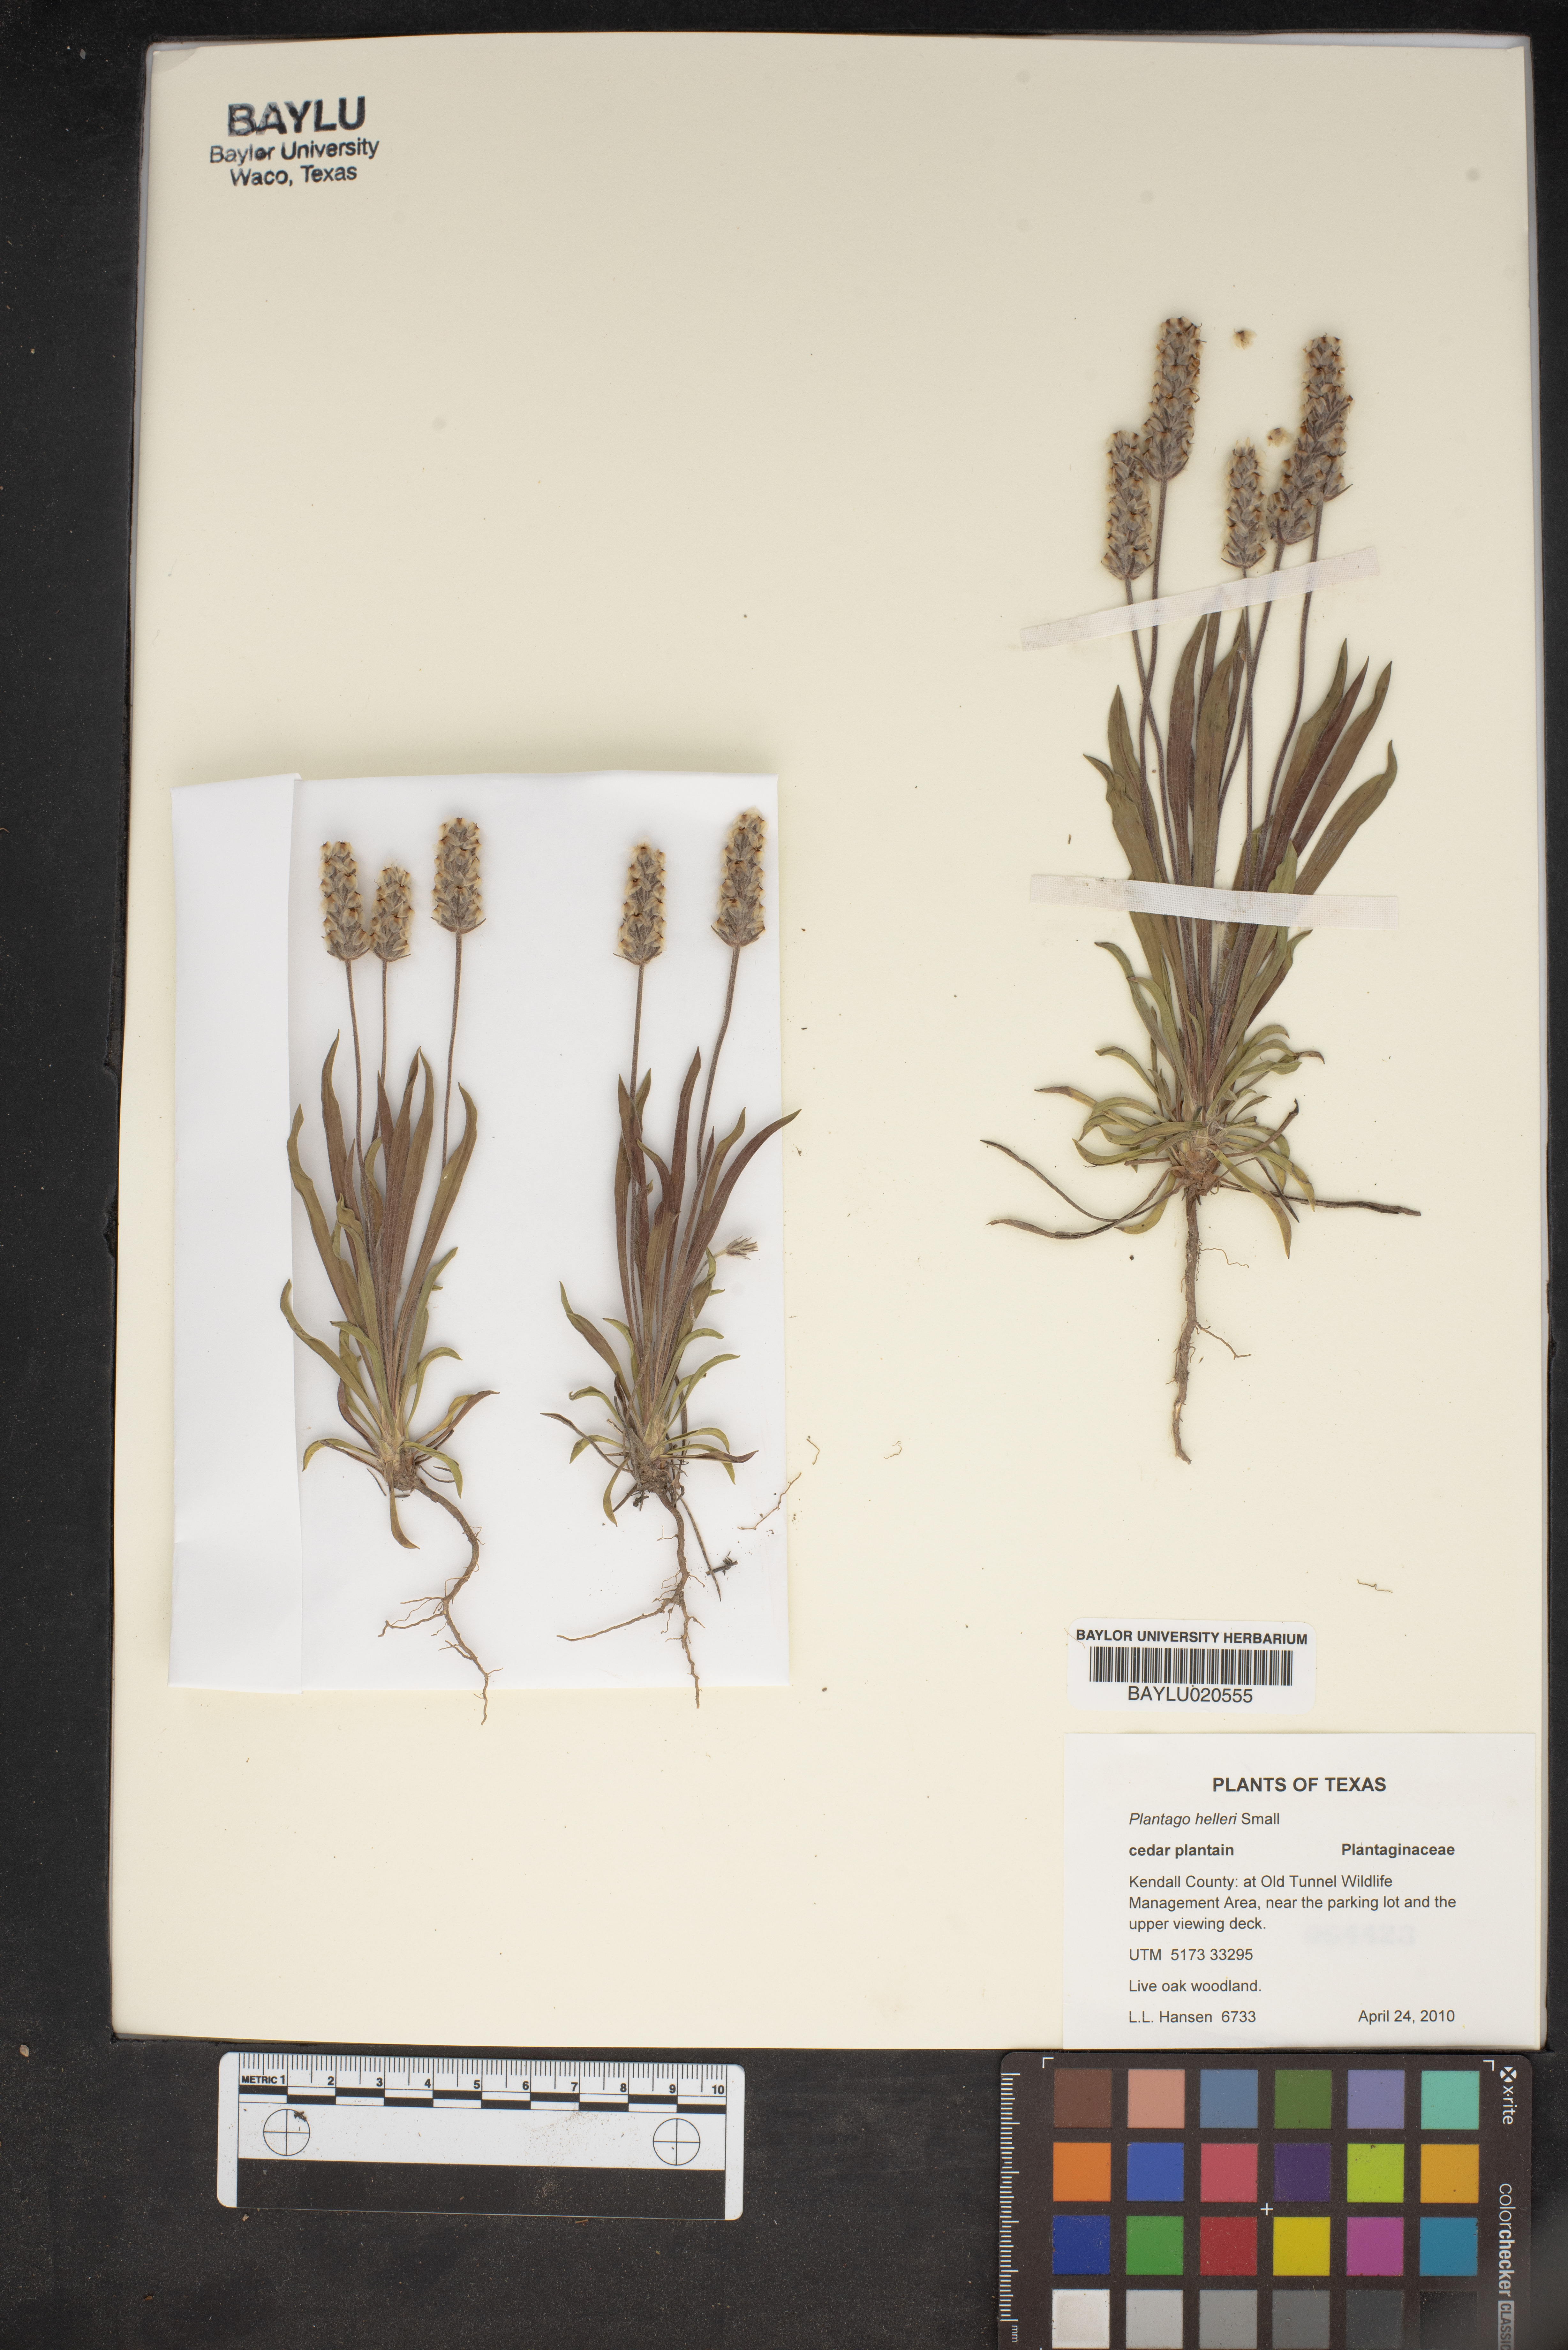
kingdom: Plantae
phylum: Tracheophyta
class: Magnoliopsida
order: Lamiales
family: Plantaginaceae
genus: Plantago
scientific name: Plantago helleri
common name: Heller's plantain
